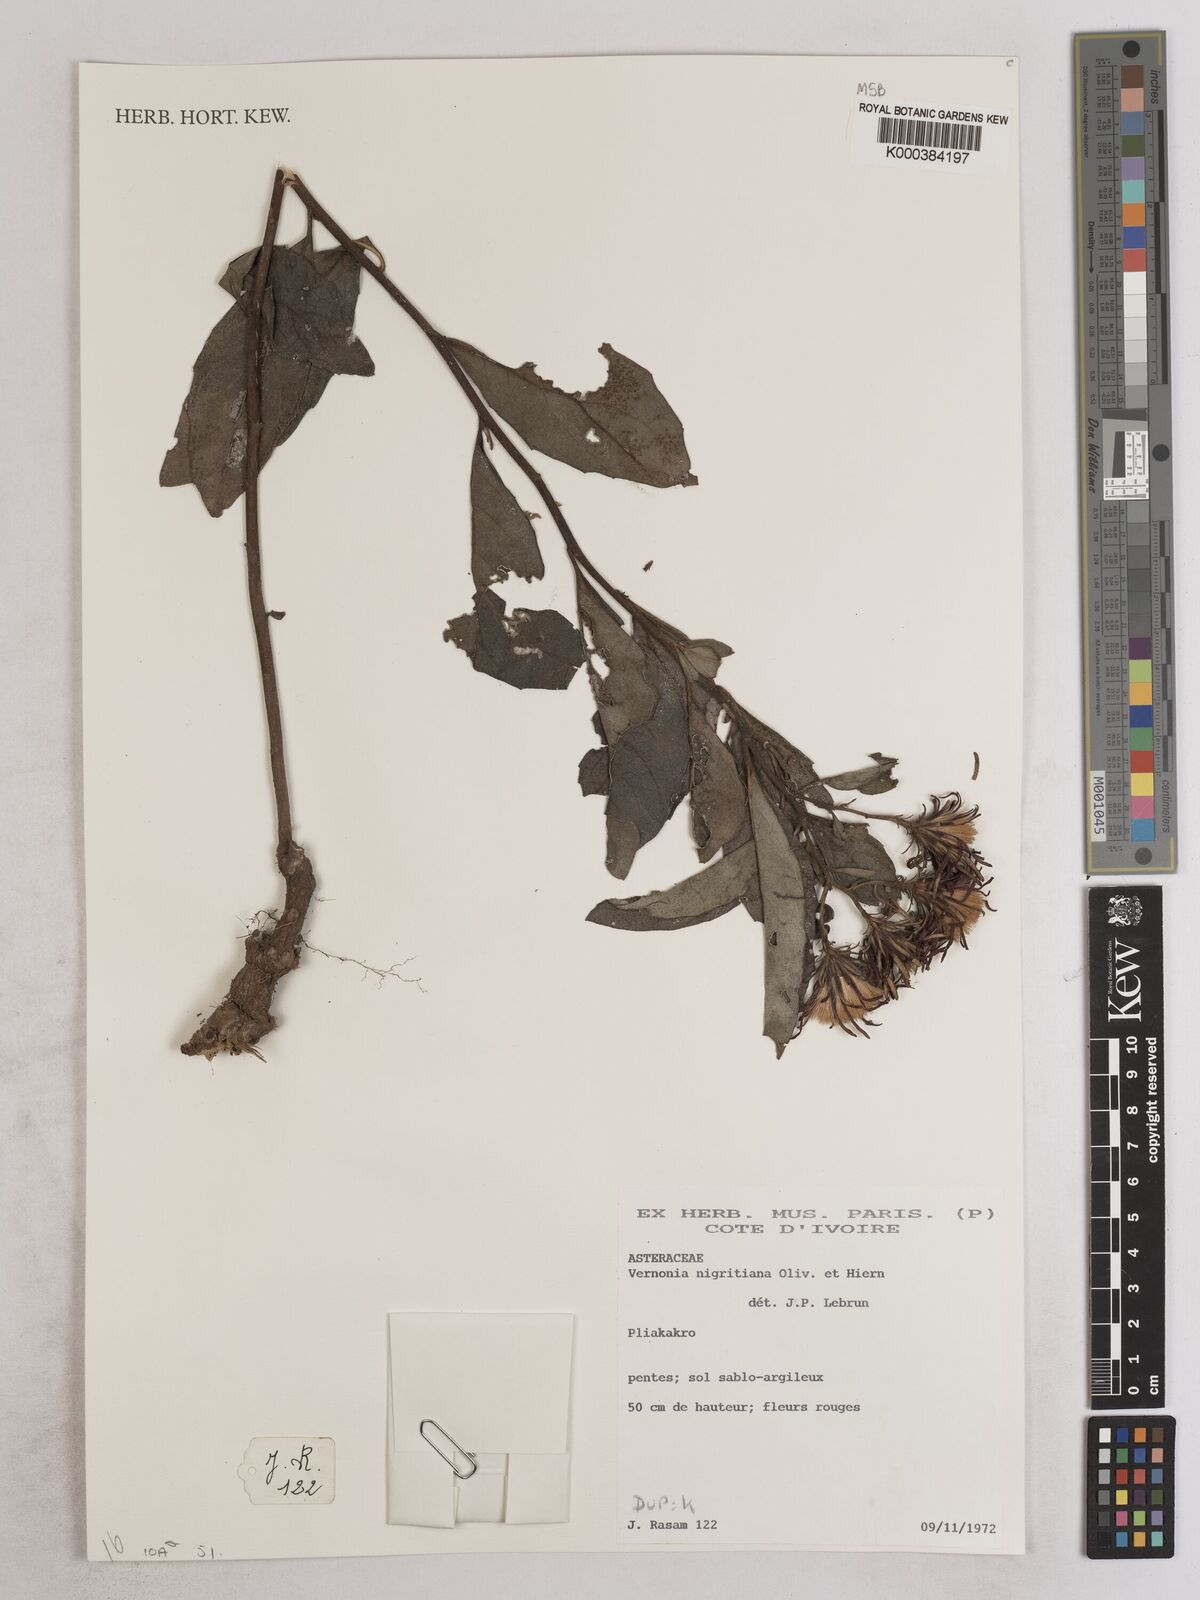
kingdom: Plantae
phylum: Tracheophyta
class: Magnoliopsida
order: Asterales
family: Asteraceae
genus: Linzia
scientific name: Linzia nigritiana
